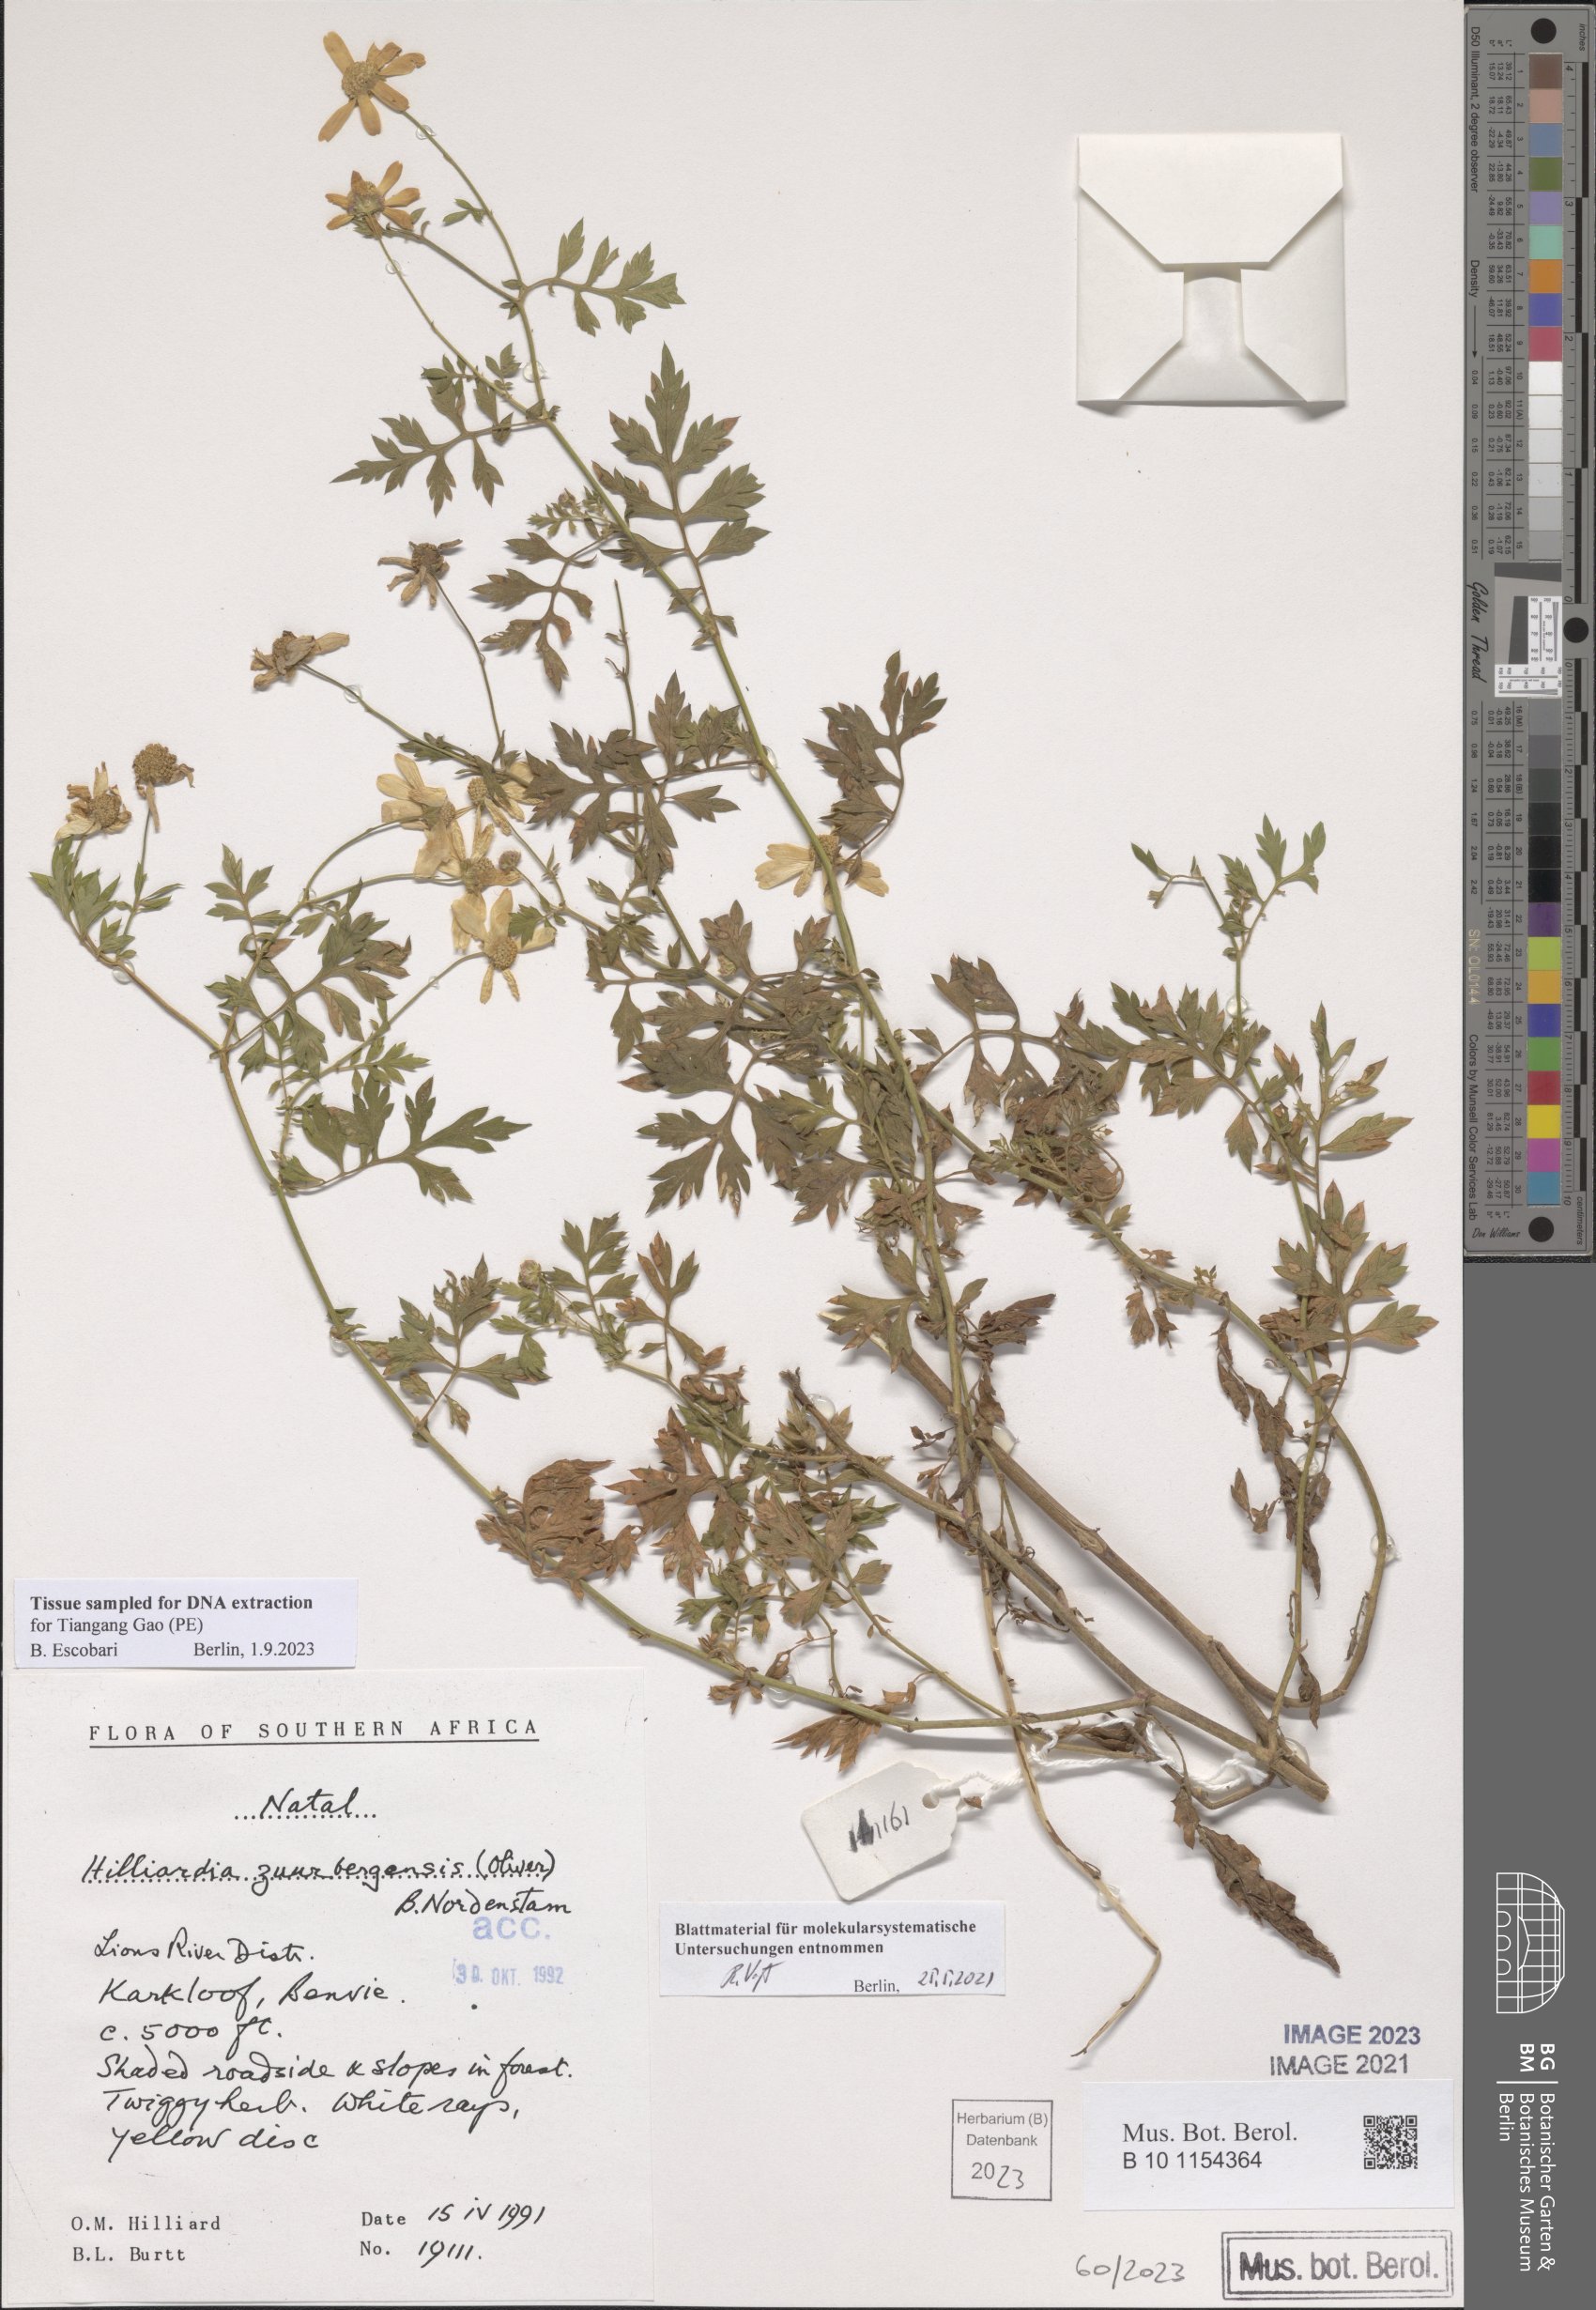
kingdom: Plantae
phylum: Tracheophyta
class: Magnoliopsida
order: Asterales
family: Asteraceae
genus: Hilliardia
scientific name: Hilliardia zuurbergensis
